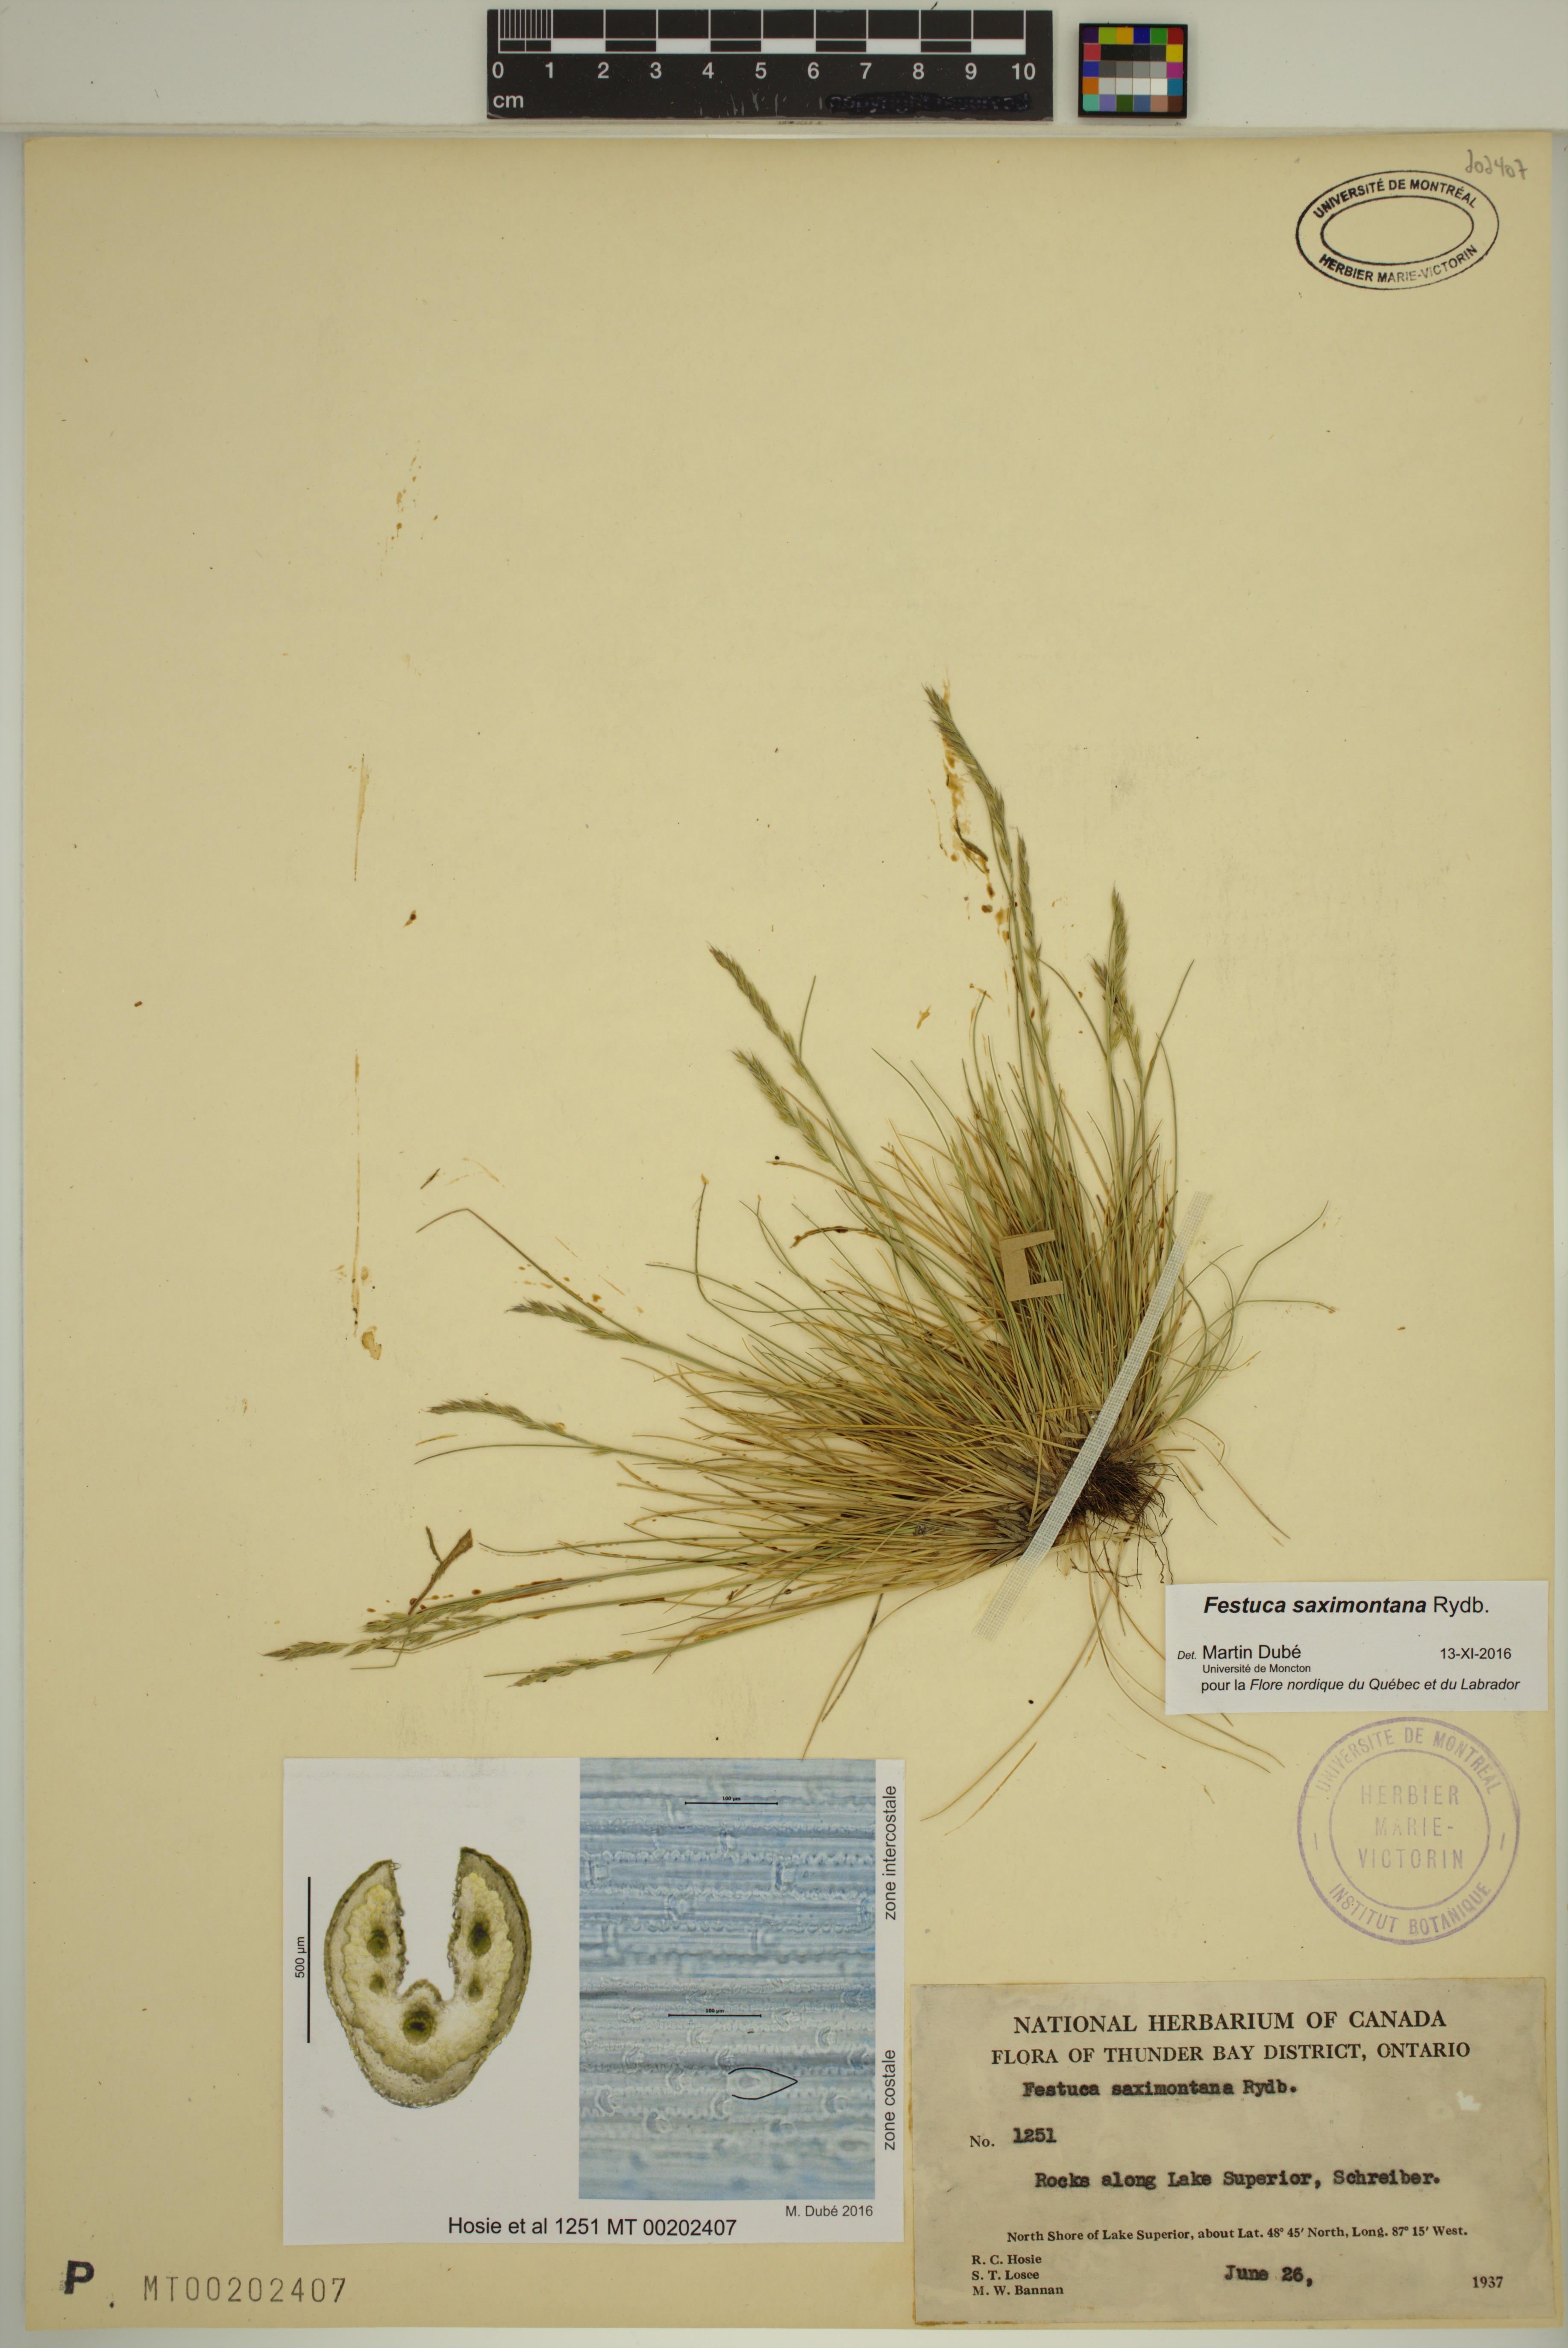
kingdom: Plantae
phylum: Tracheophyta
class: Liliopsida
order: Poales
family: Poaceae
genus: Festuca
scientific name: Festuca saximontana
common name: Mountain fescue
